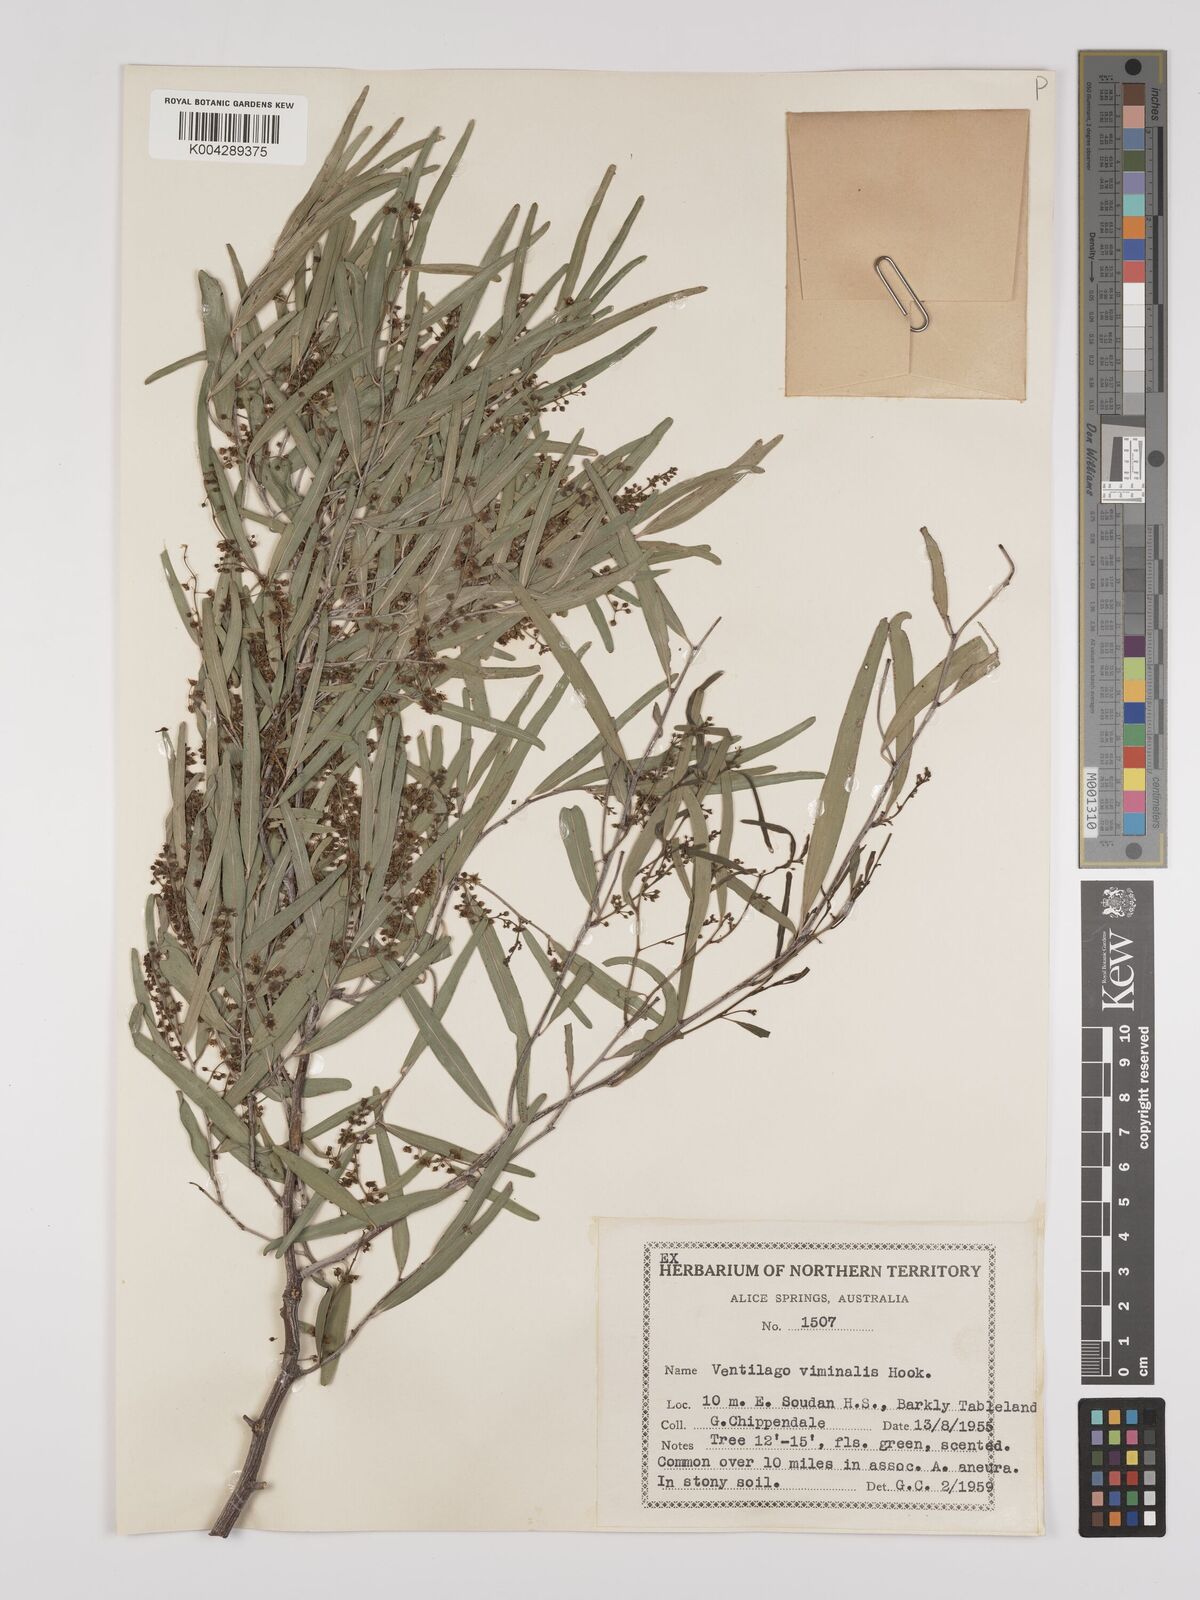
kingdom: Plantae
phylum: Tracheophyta
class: Magnoliopsida
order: Rosales
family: Rhamnaceae
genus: Ventilago
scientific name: Ventilago viminalis
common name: Medicine-bark
